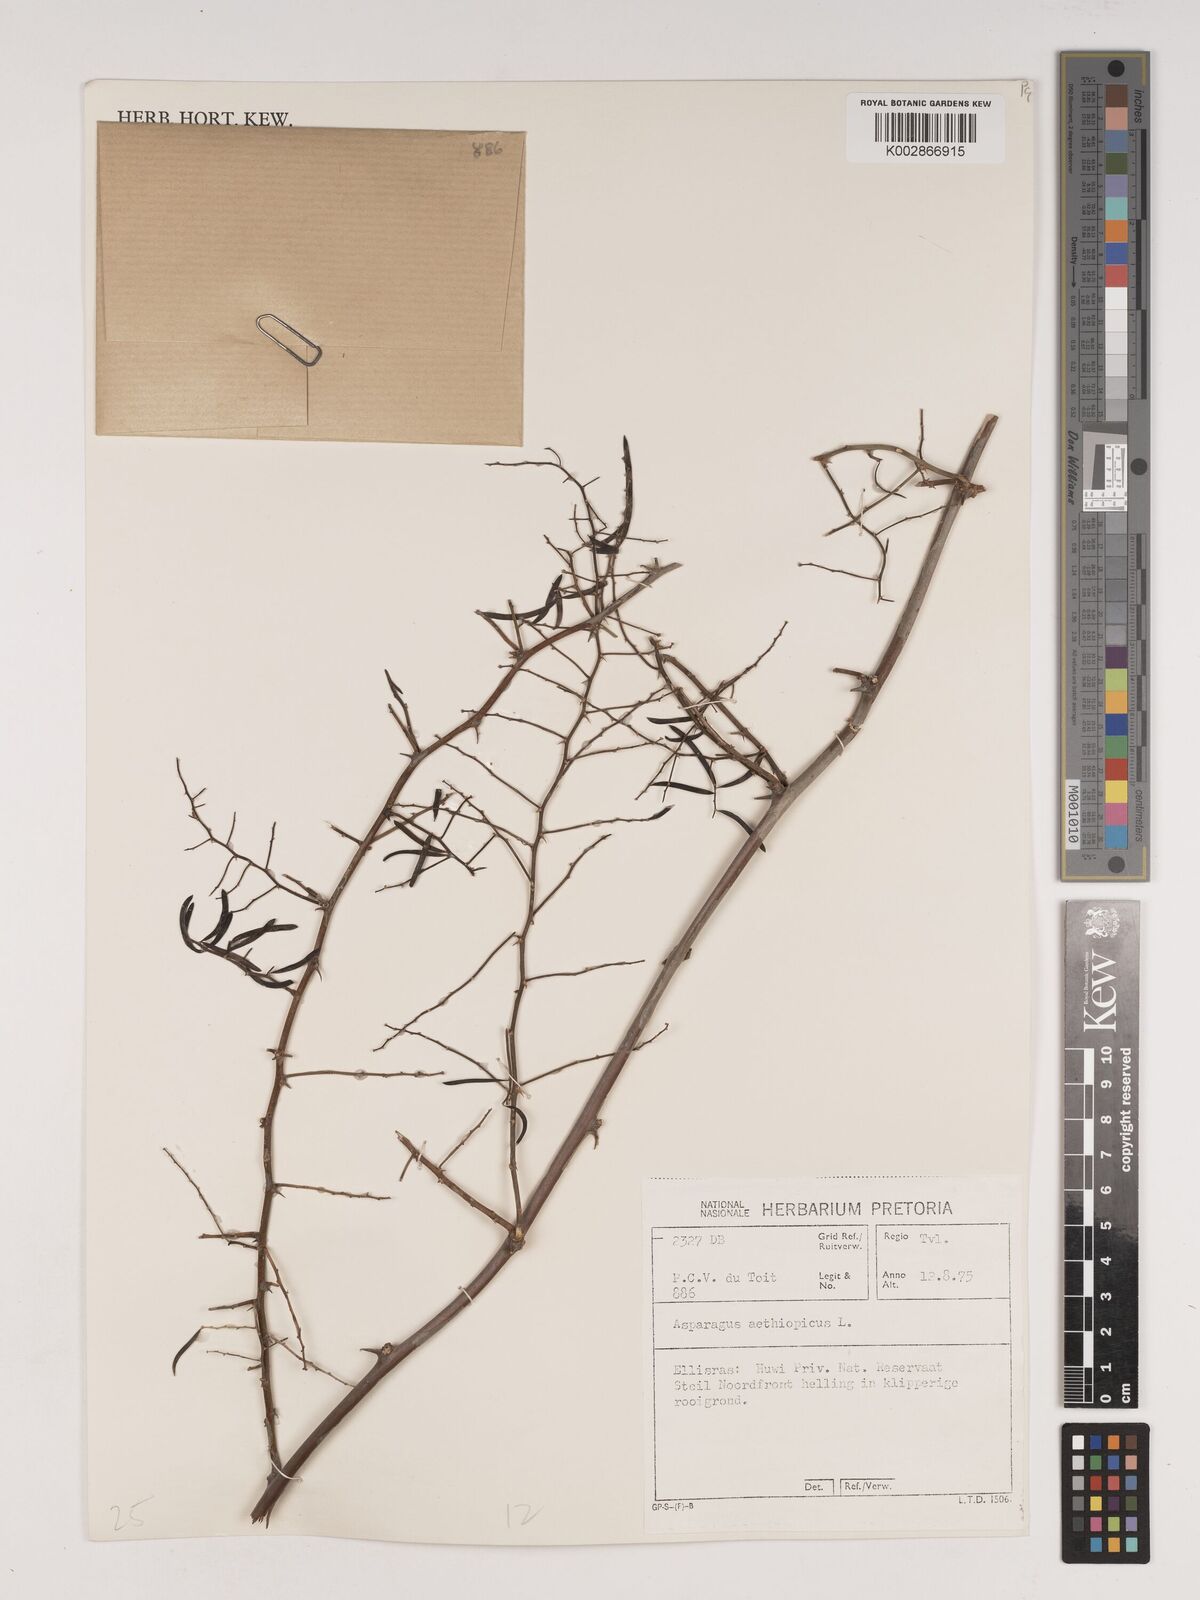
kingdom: Plantae
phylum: Tracheophyta
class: Liliopsida
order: Asparagales
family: Asparagaceae
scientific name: Asparagaceae
